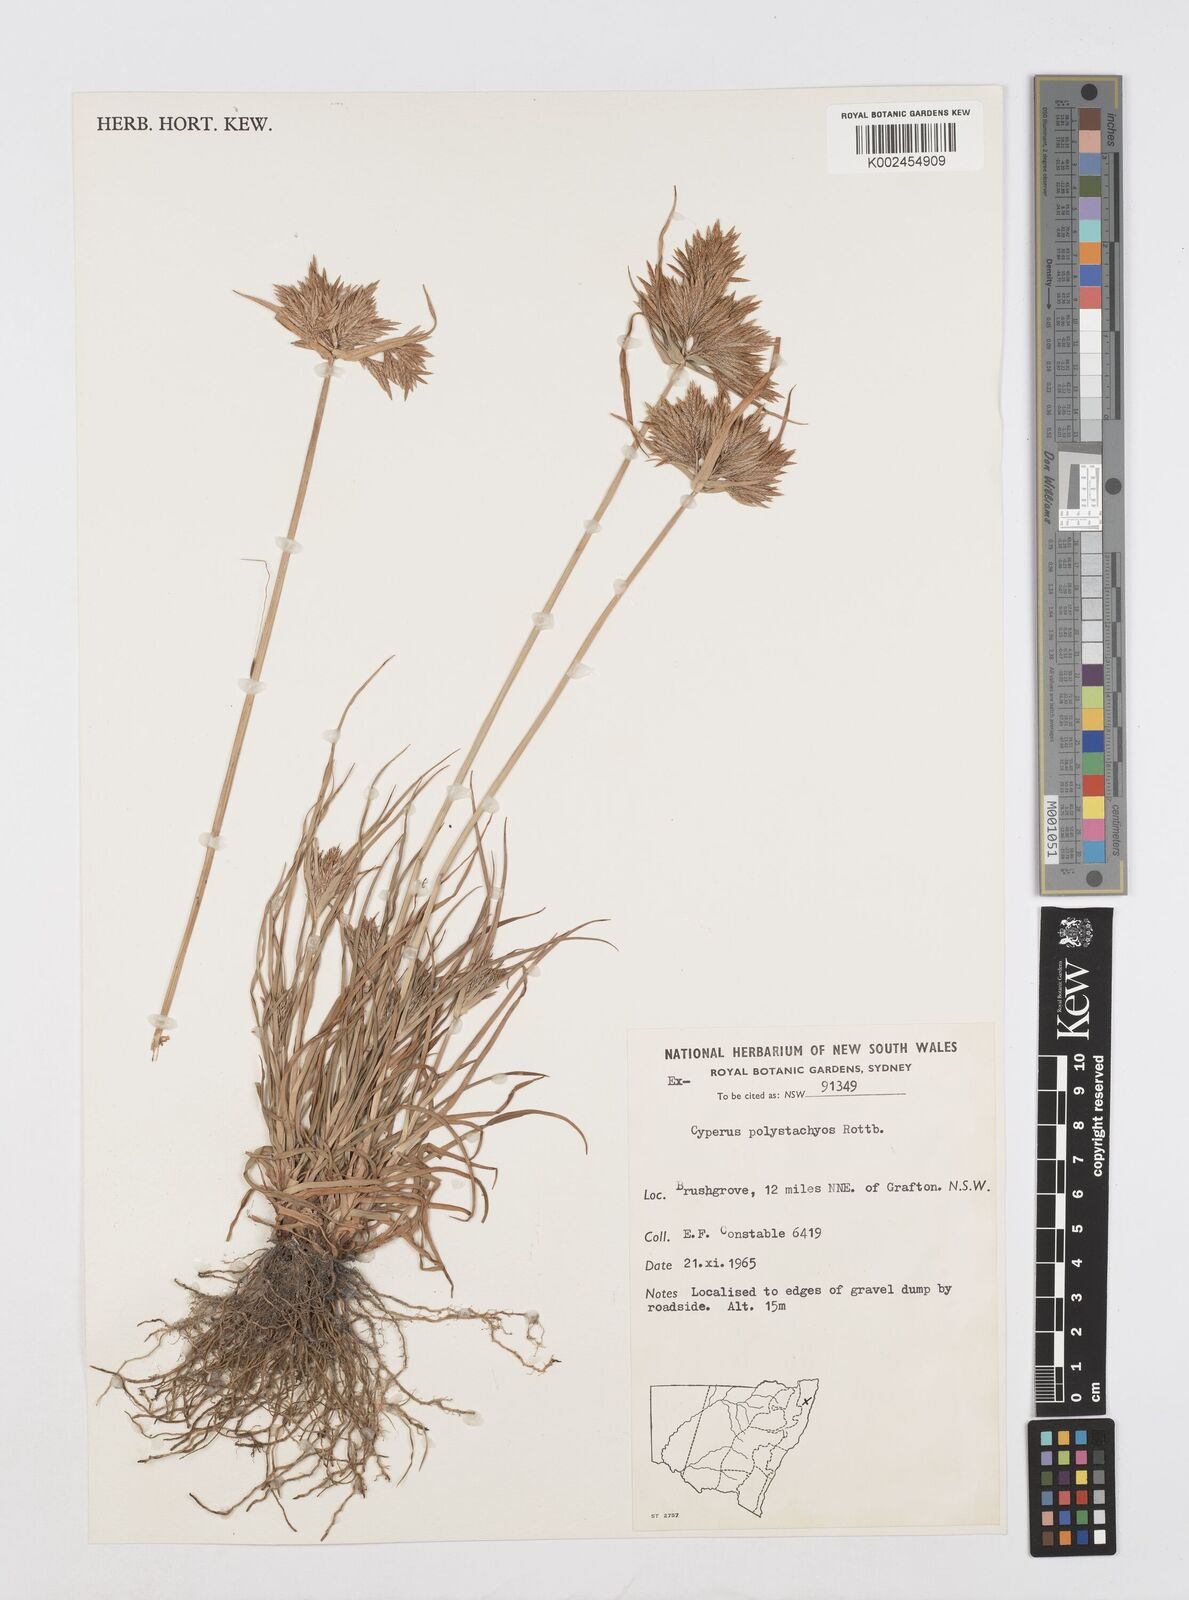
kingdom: Plantae
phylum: Tracheophyta
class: Liliopsida
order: Poales
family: Cyperaceae
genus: Cyperus
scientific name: Cyperus polystachyos
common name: Bunchy flat sedge
